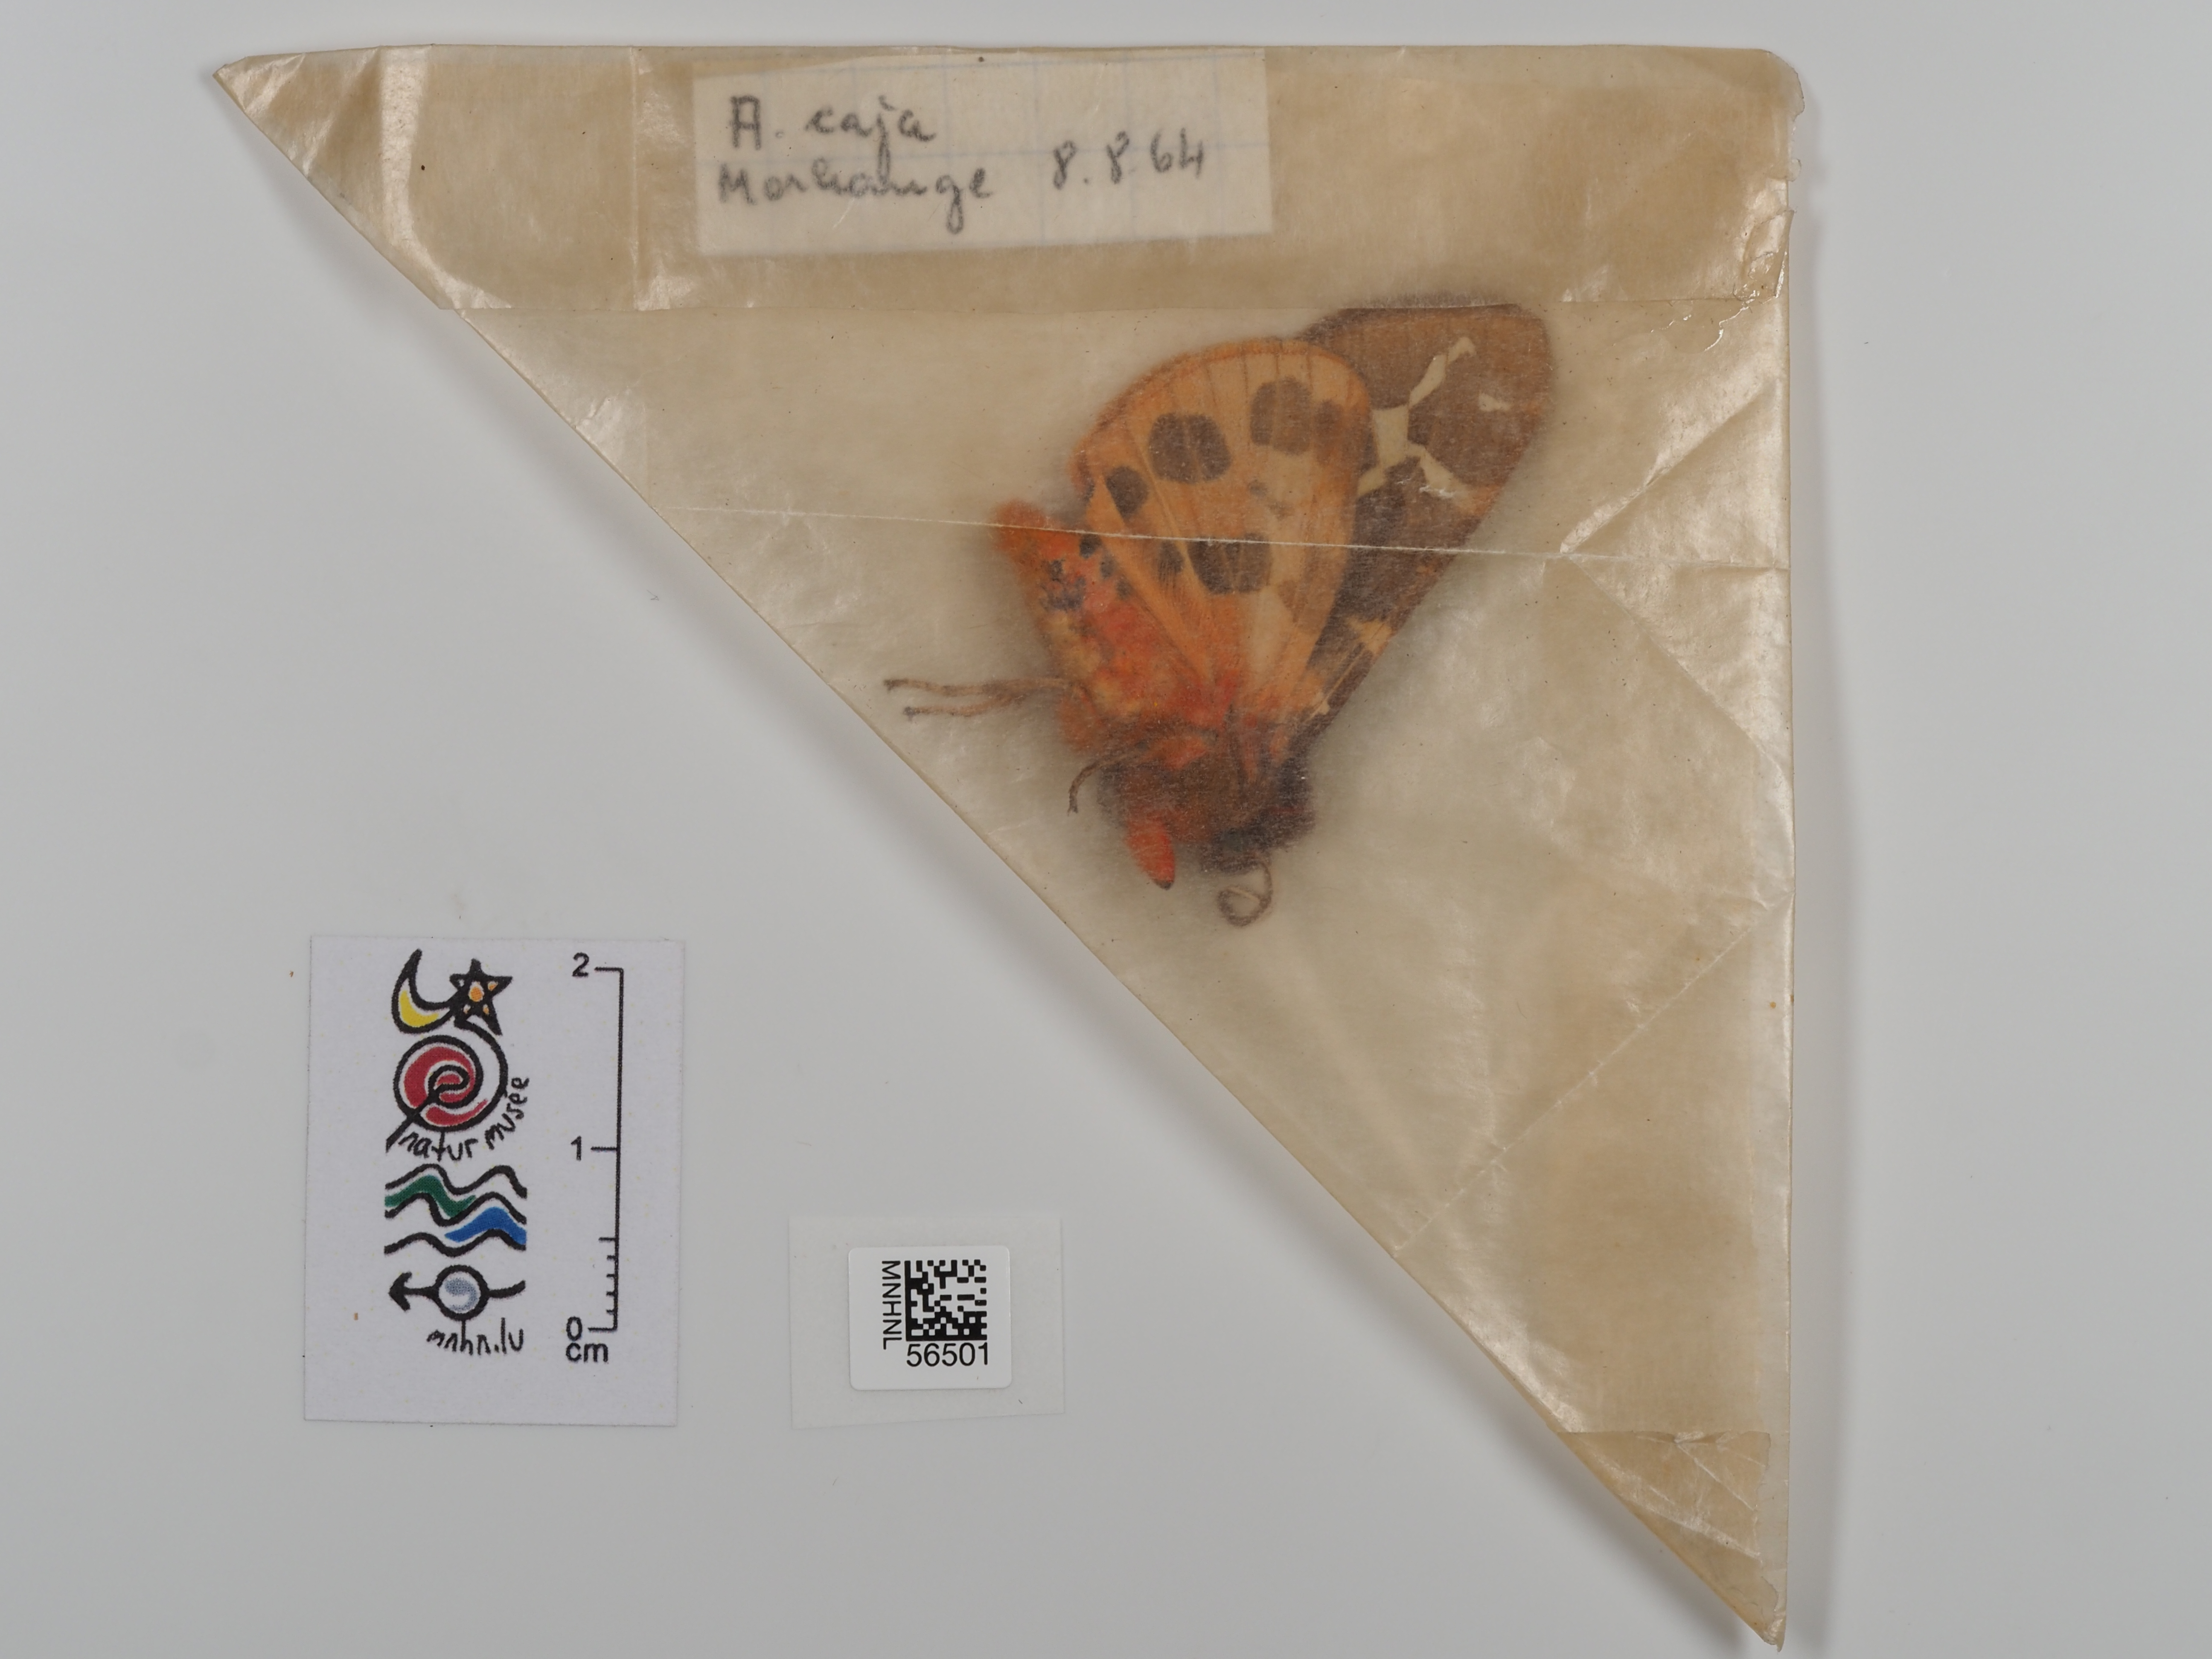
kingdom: Animalia
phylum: Arthropoda
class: Insecta
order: Lepidoptera
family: Erebidae
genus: Arctia
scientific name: Arctia caja
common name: Garden tiger
